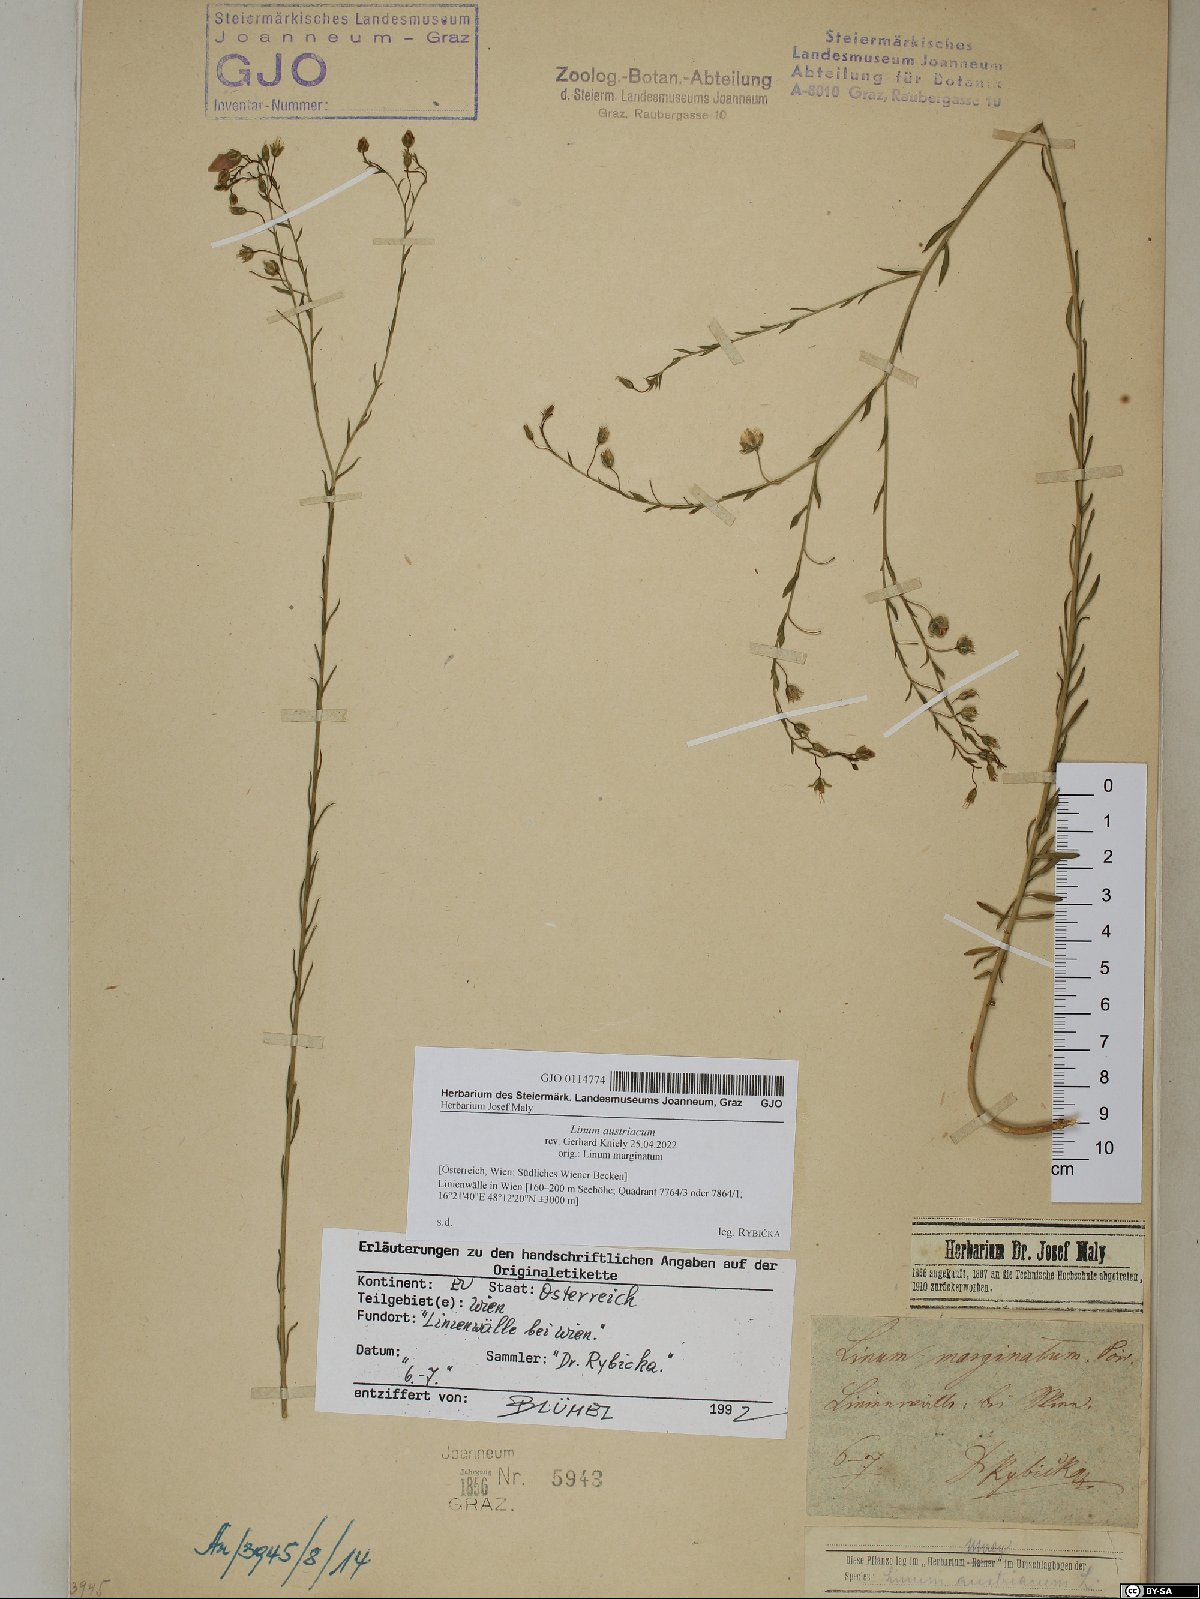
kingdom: Plantae
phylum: Tracheophyta
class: Magnoliopsida
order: Malpighiales
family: Linaceae
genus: Linum
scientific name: Linum austriacum
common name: Austrian flax
